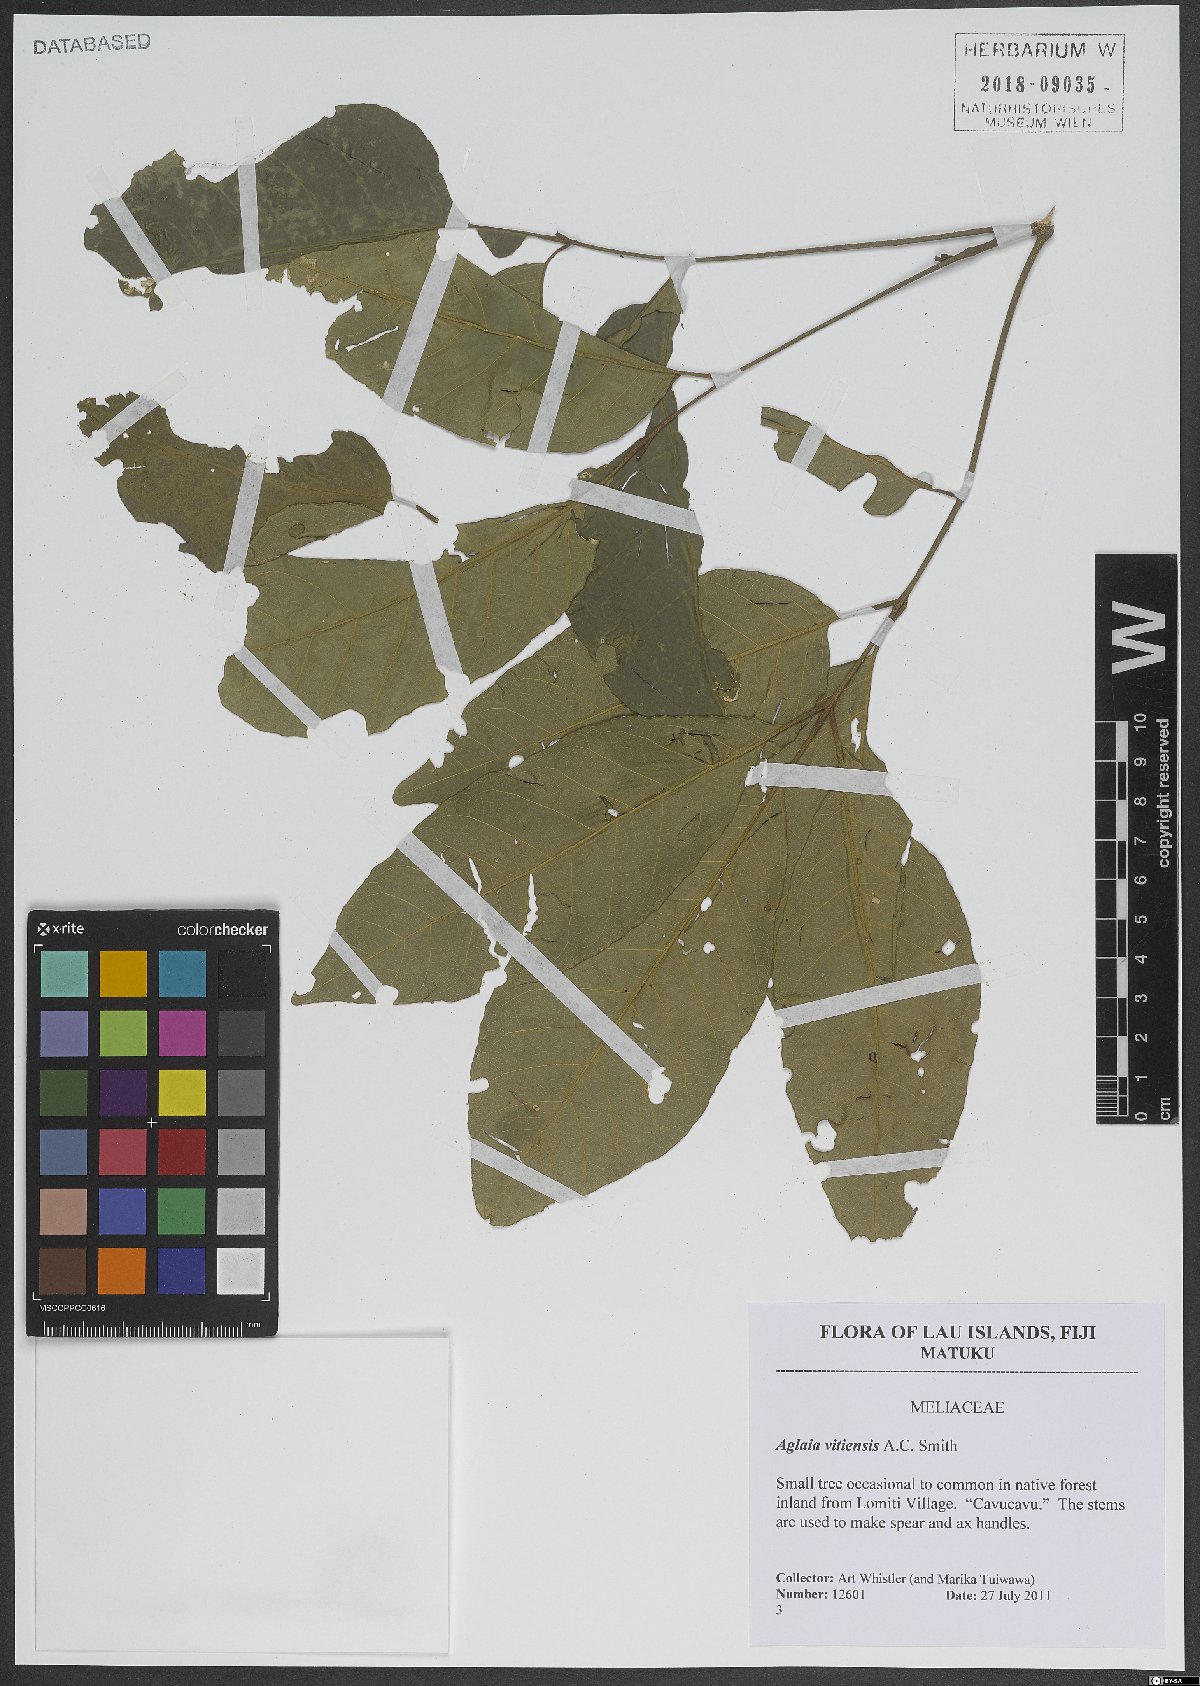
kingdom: Plantae
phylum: Tracheophyta
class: Magnoliopsida
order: Sapindales
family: Meliaceae
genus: Aglaia
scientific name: Aglaia vitiensis
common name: Lindiyango
